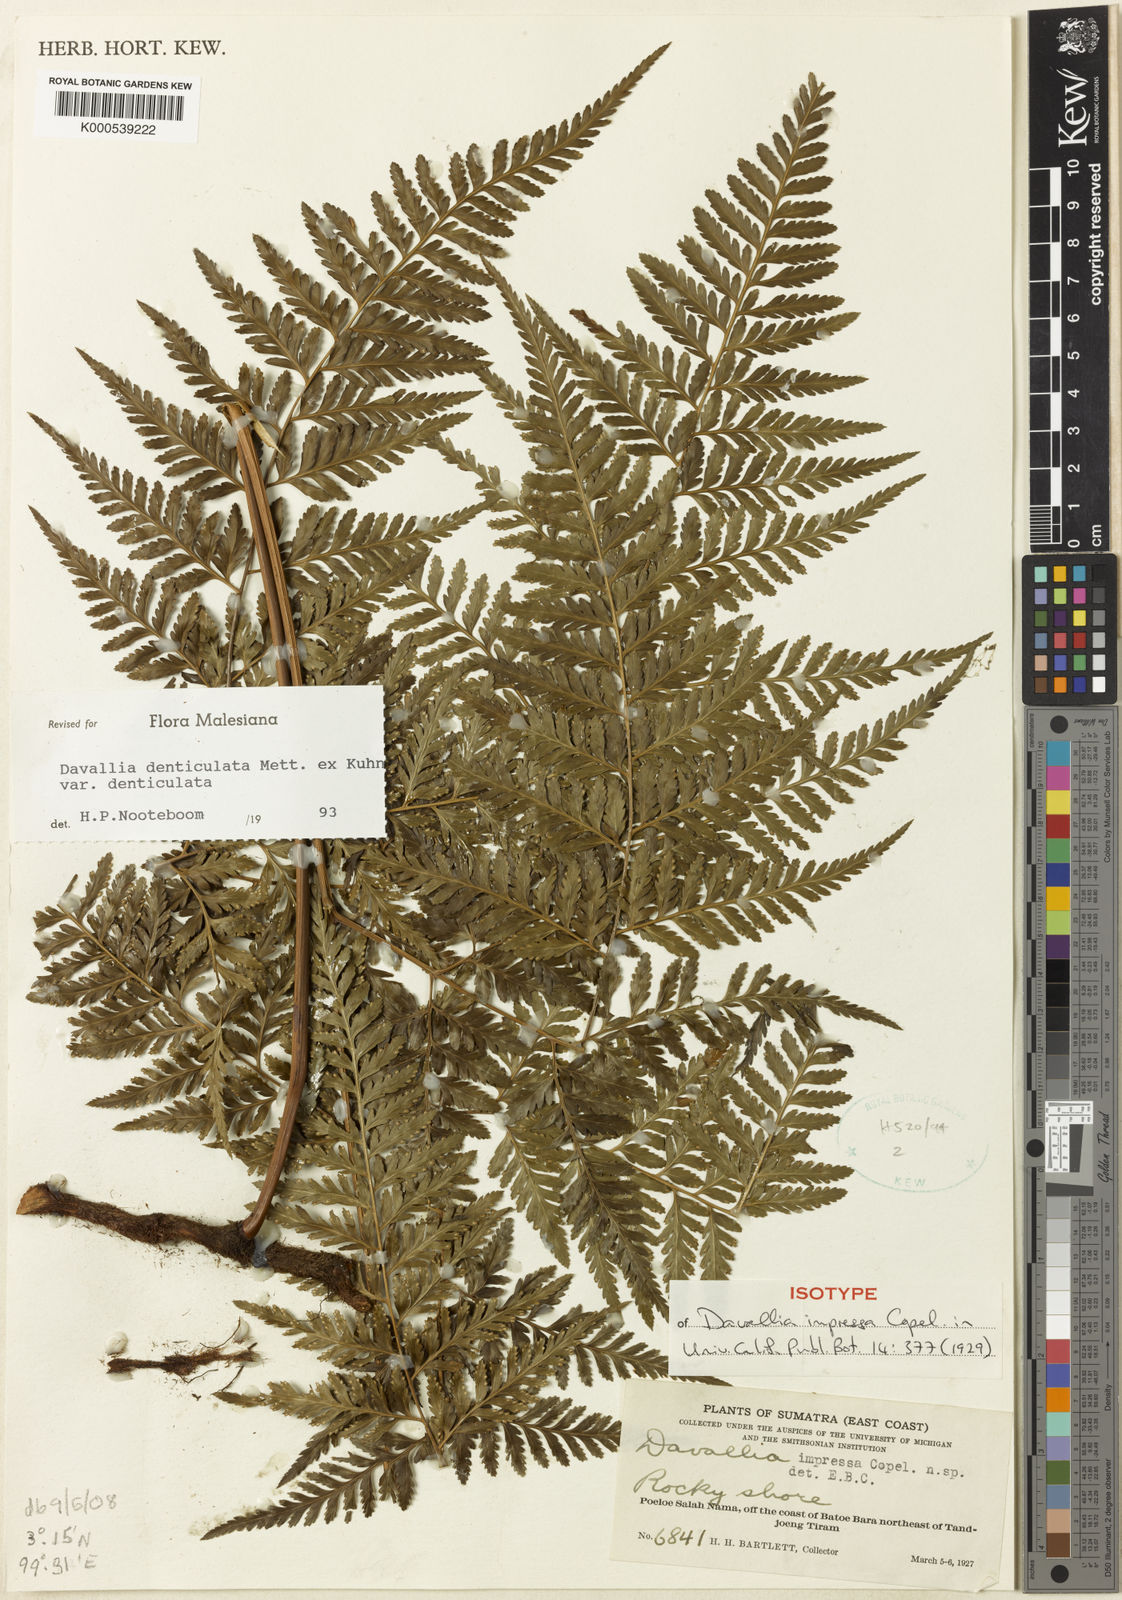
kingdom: Plantae
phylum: Tracheophyta
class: Polypodiopsida
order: Polypodiales
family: Davalliaceae
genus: Davallia
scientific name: Davallia denticulata
